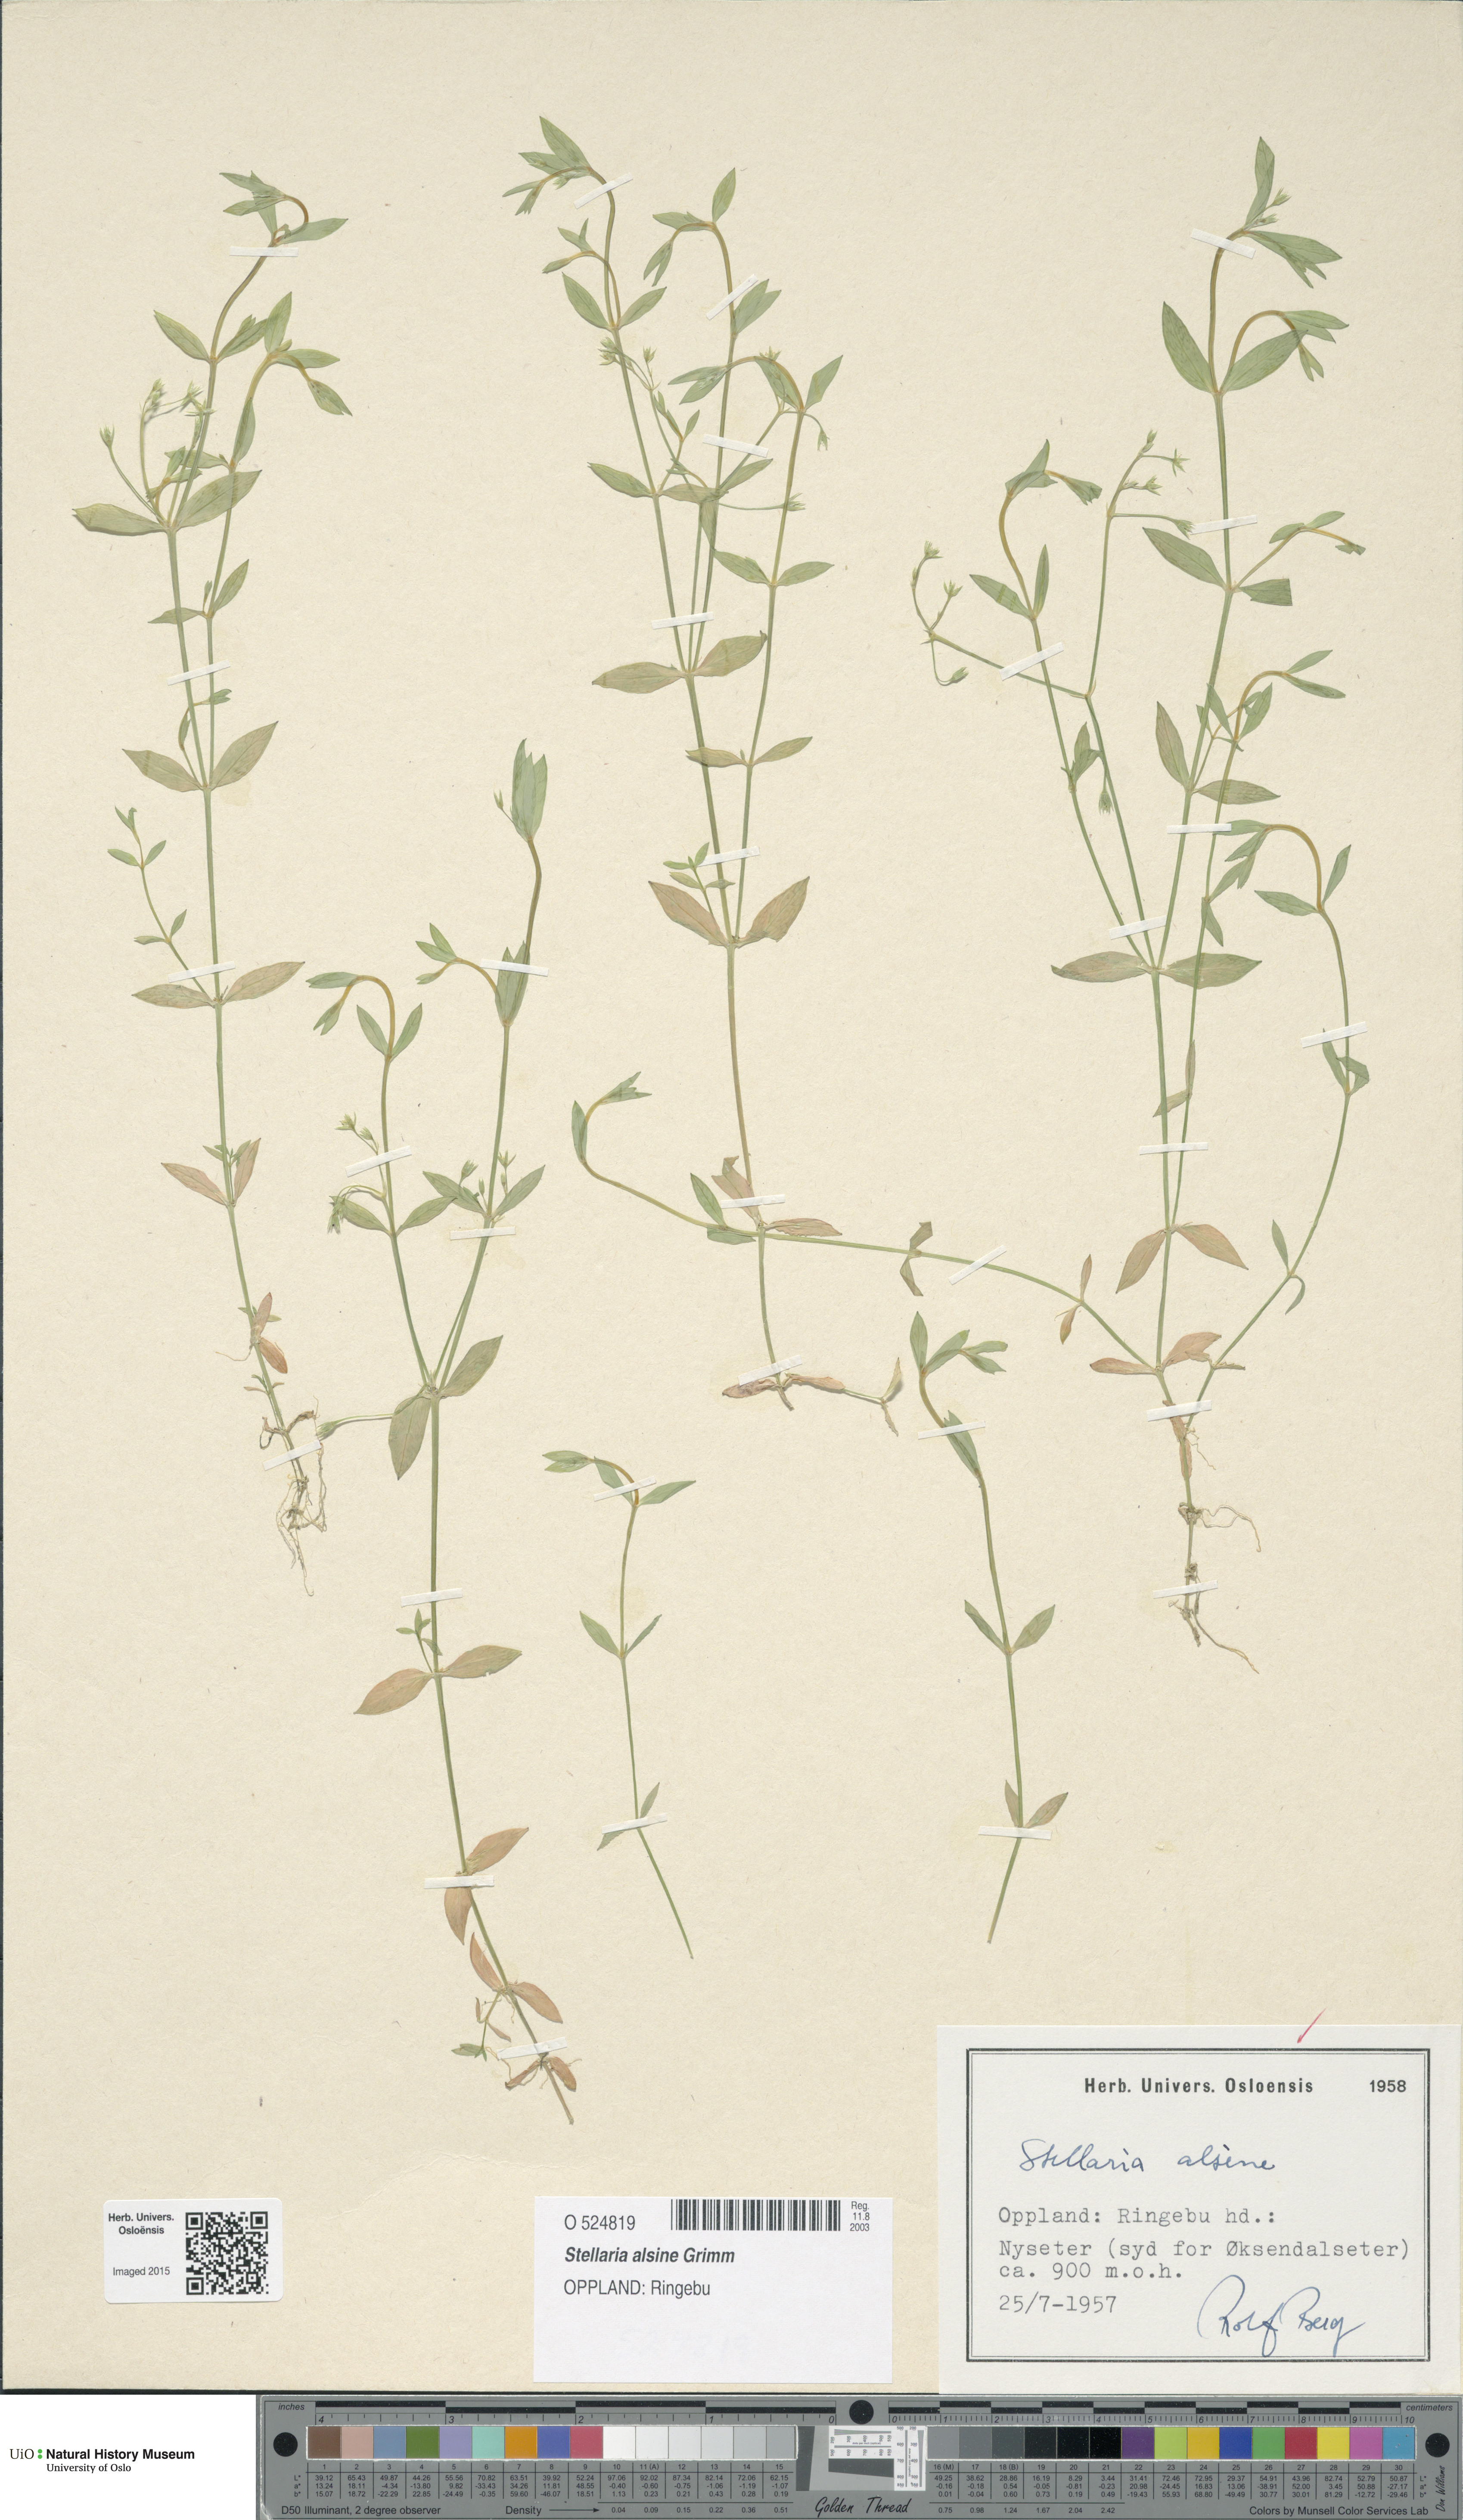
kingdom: Plantae
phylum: Tracheophyta
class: Magnoliopsida
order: Caryophyllales
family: Caryophyllaceae
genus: Stellaria
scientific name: Stellaria alsine
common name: Bog stitchwort
